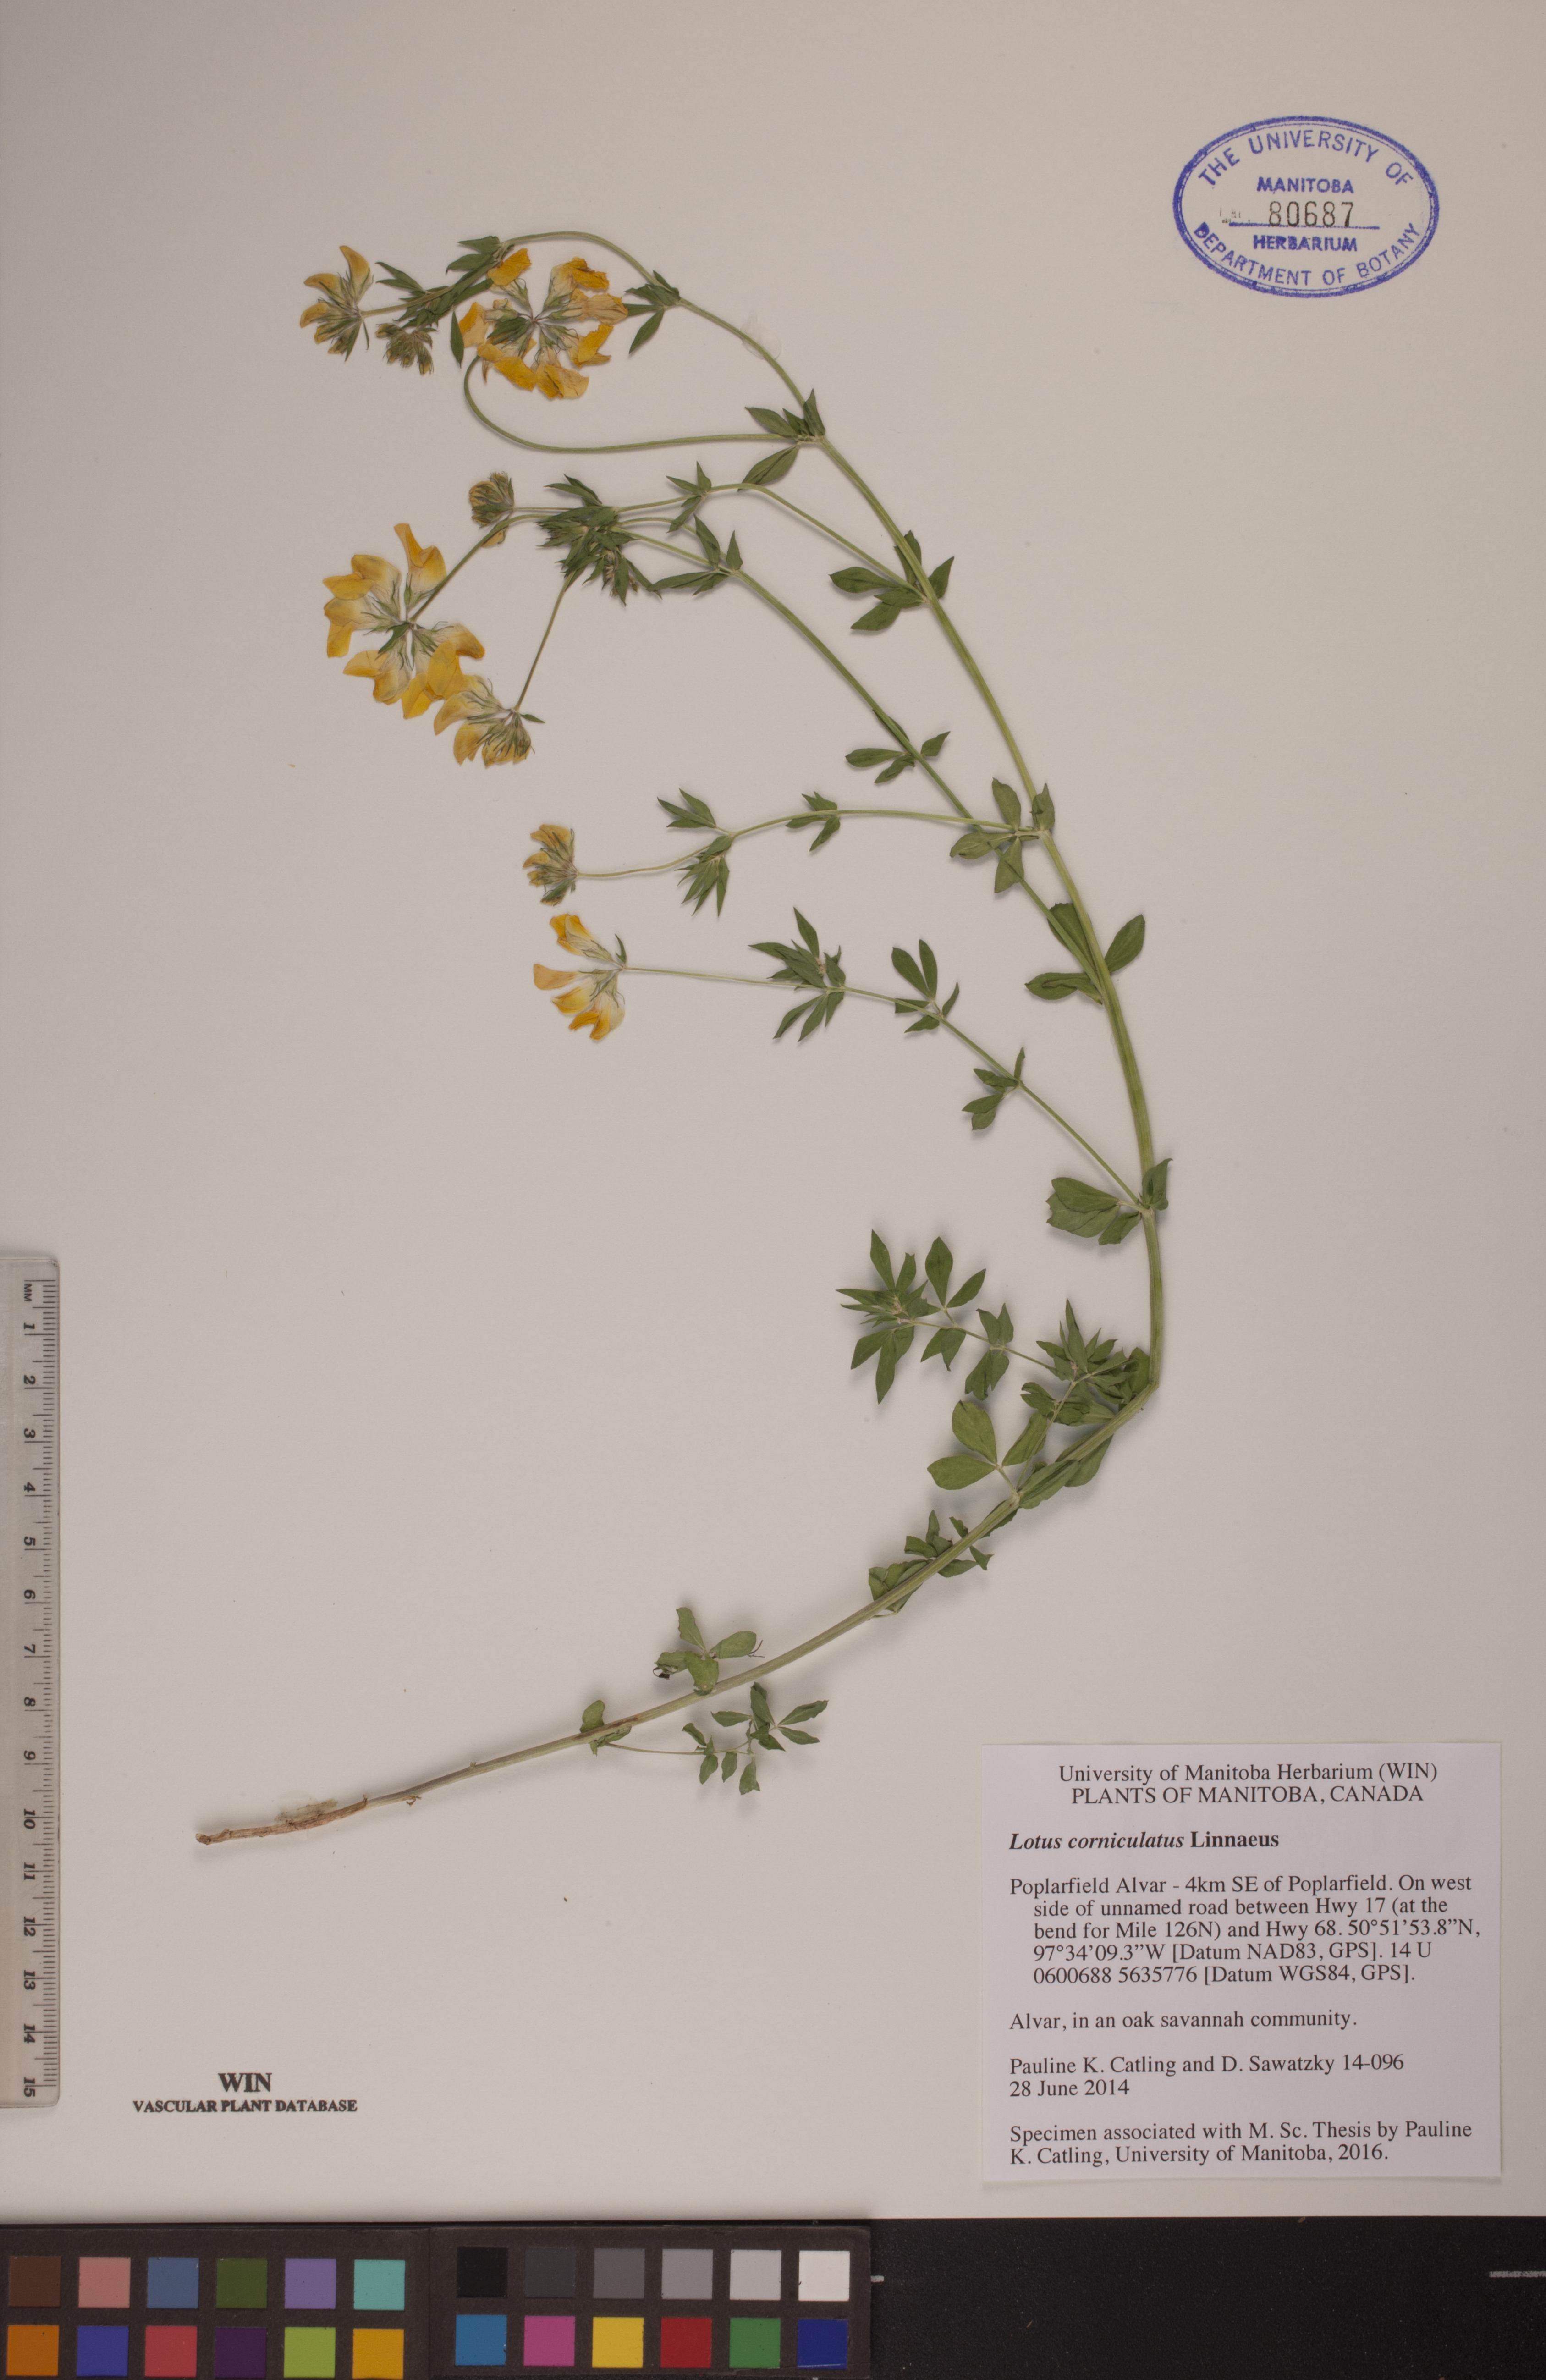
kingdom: Plantae
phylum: Tracheophyta
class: Magnoliopsida
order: Fabales
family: Fabaceae
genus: Lotus
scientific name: Lotus corniculatus
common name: Common bird's-foot-trefoil
